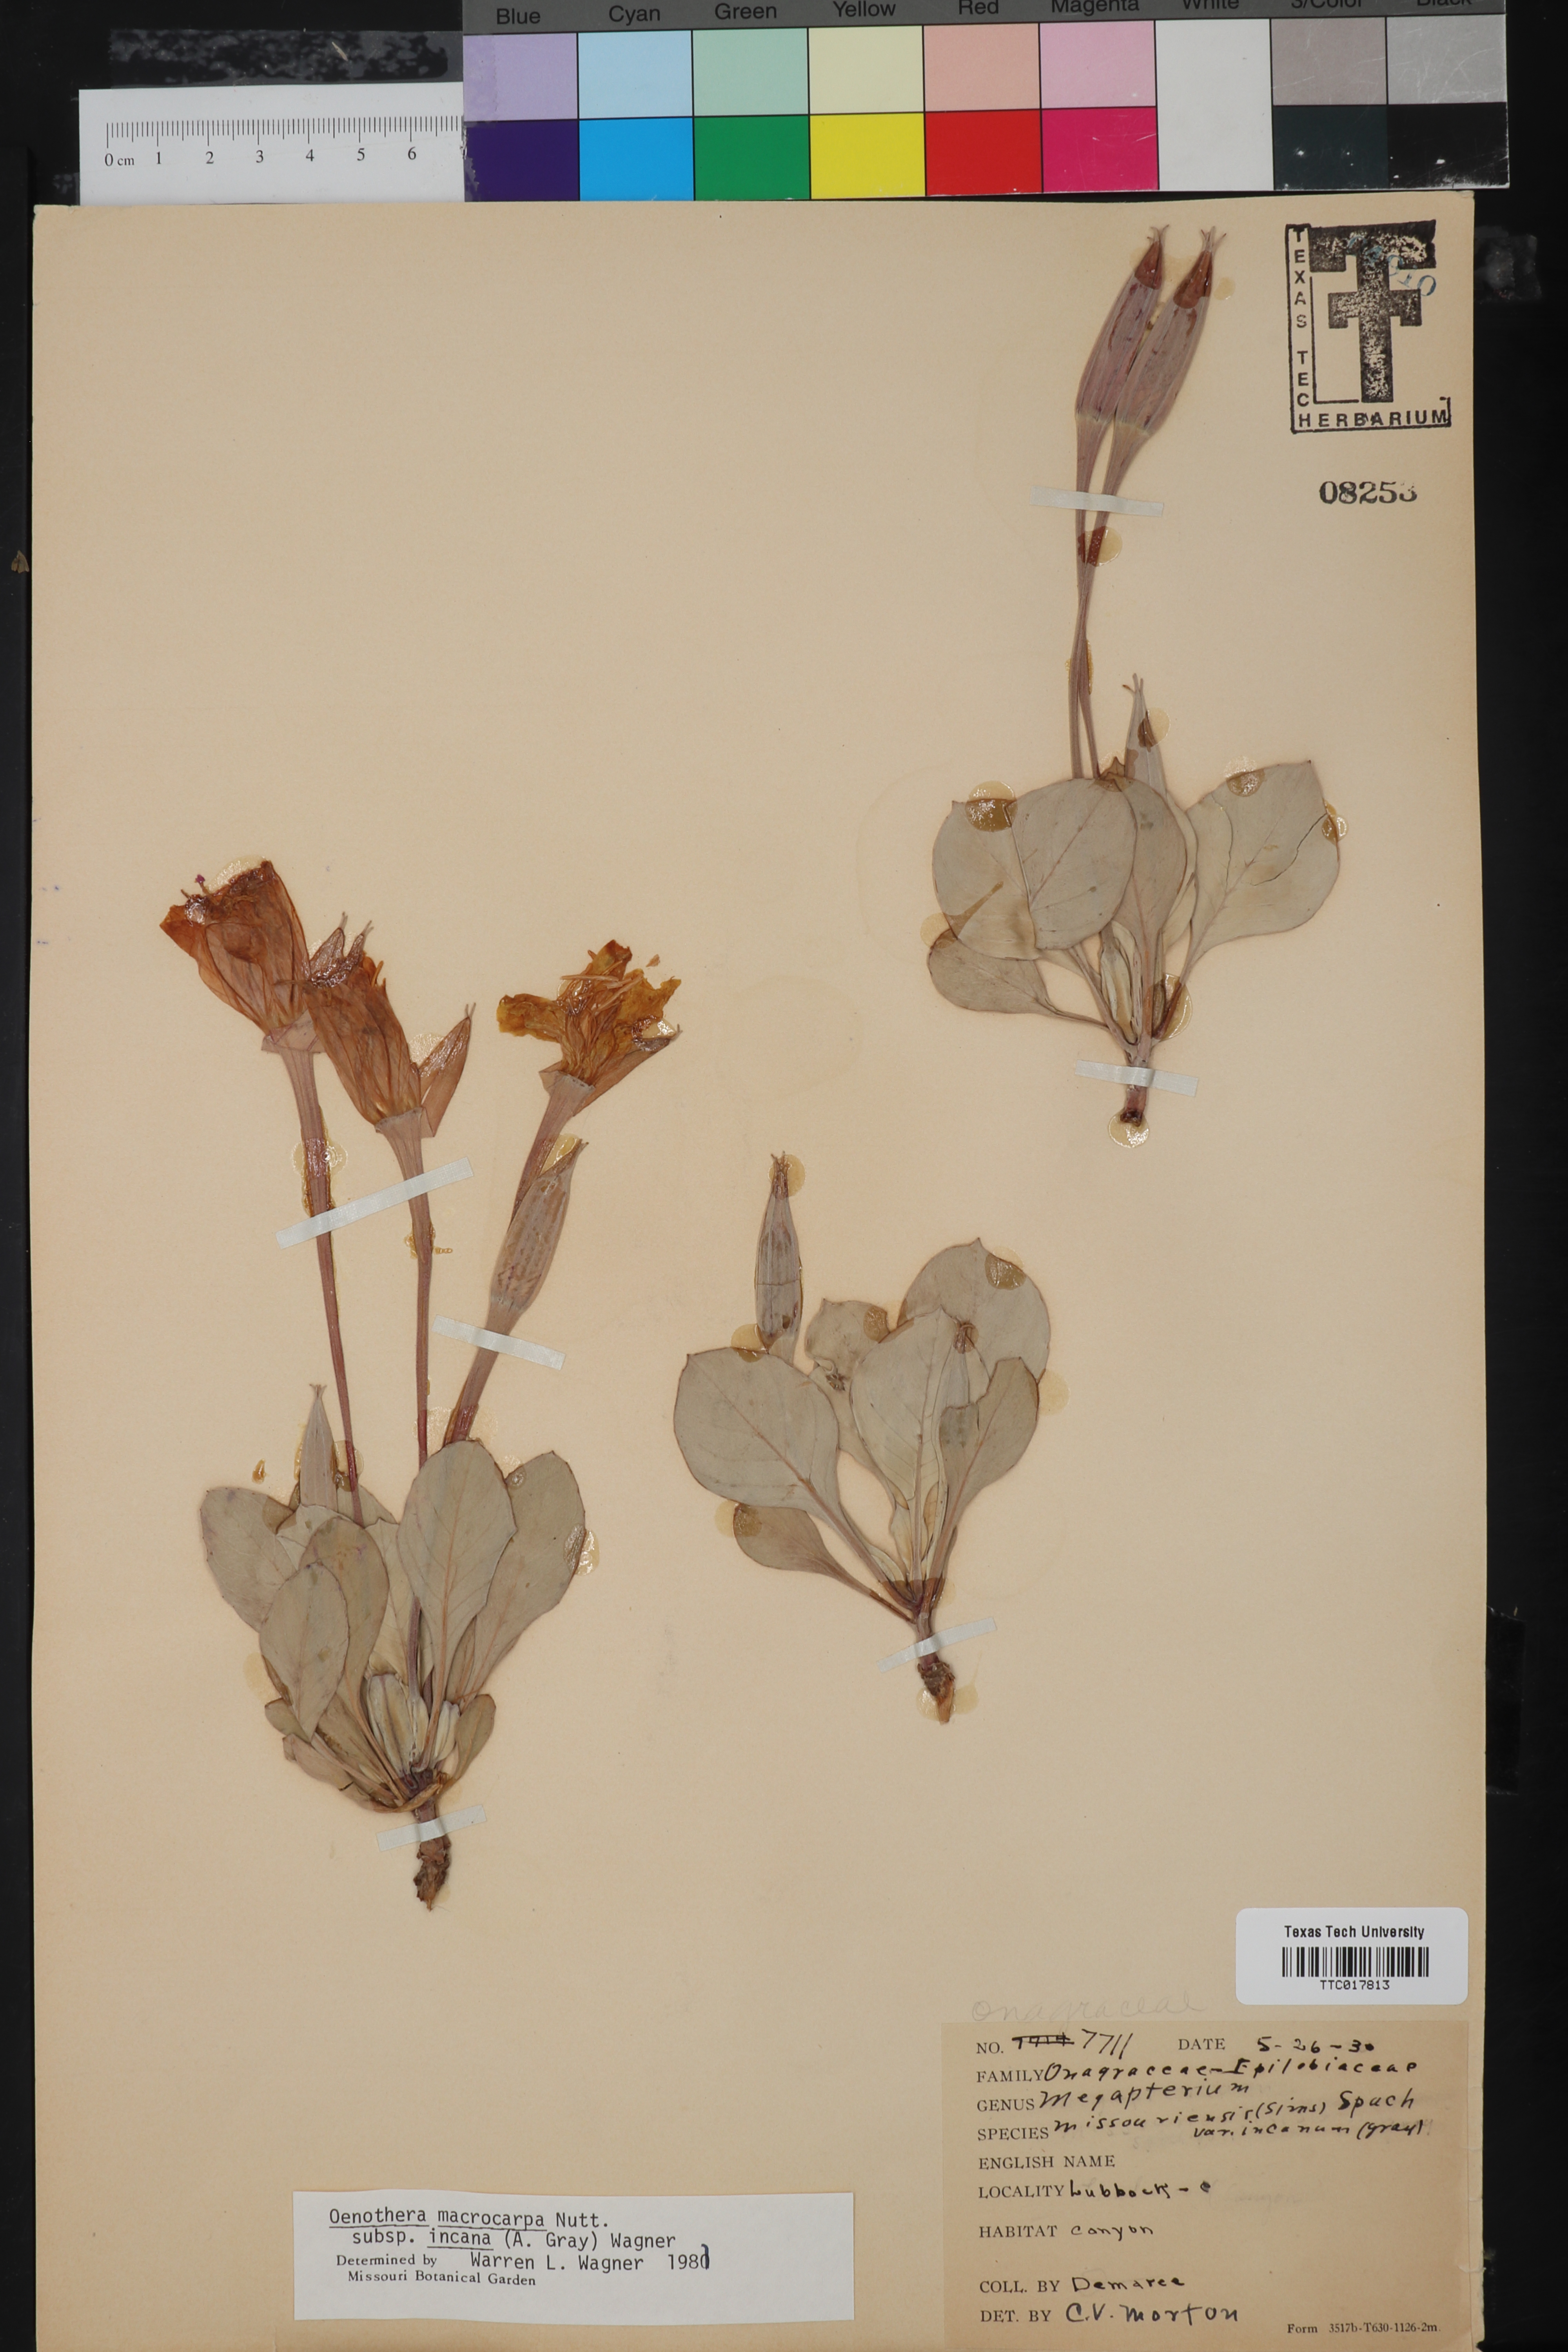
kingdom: Plantae
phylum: Tracheophyta
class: Magnoliopsida
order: Myrtales
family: Onagraceae
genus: Oenothera
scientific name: Oenothera macrocarpa
